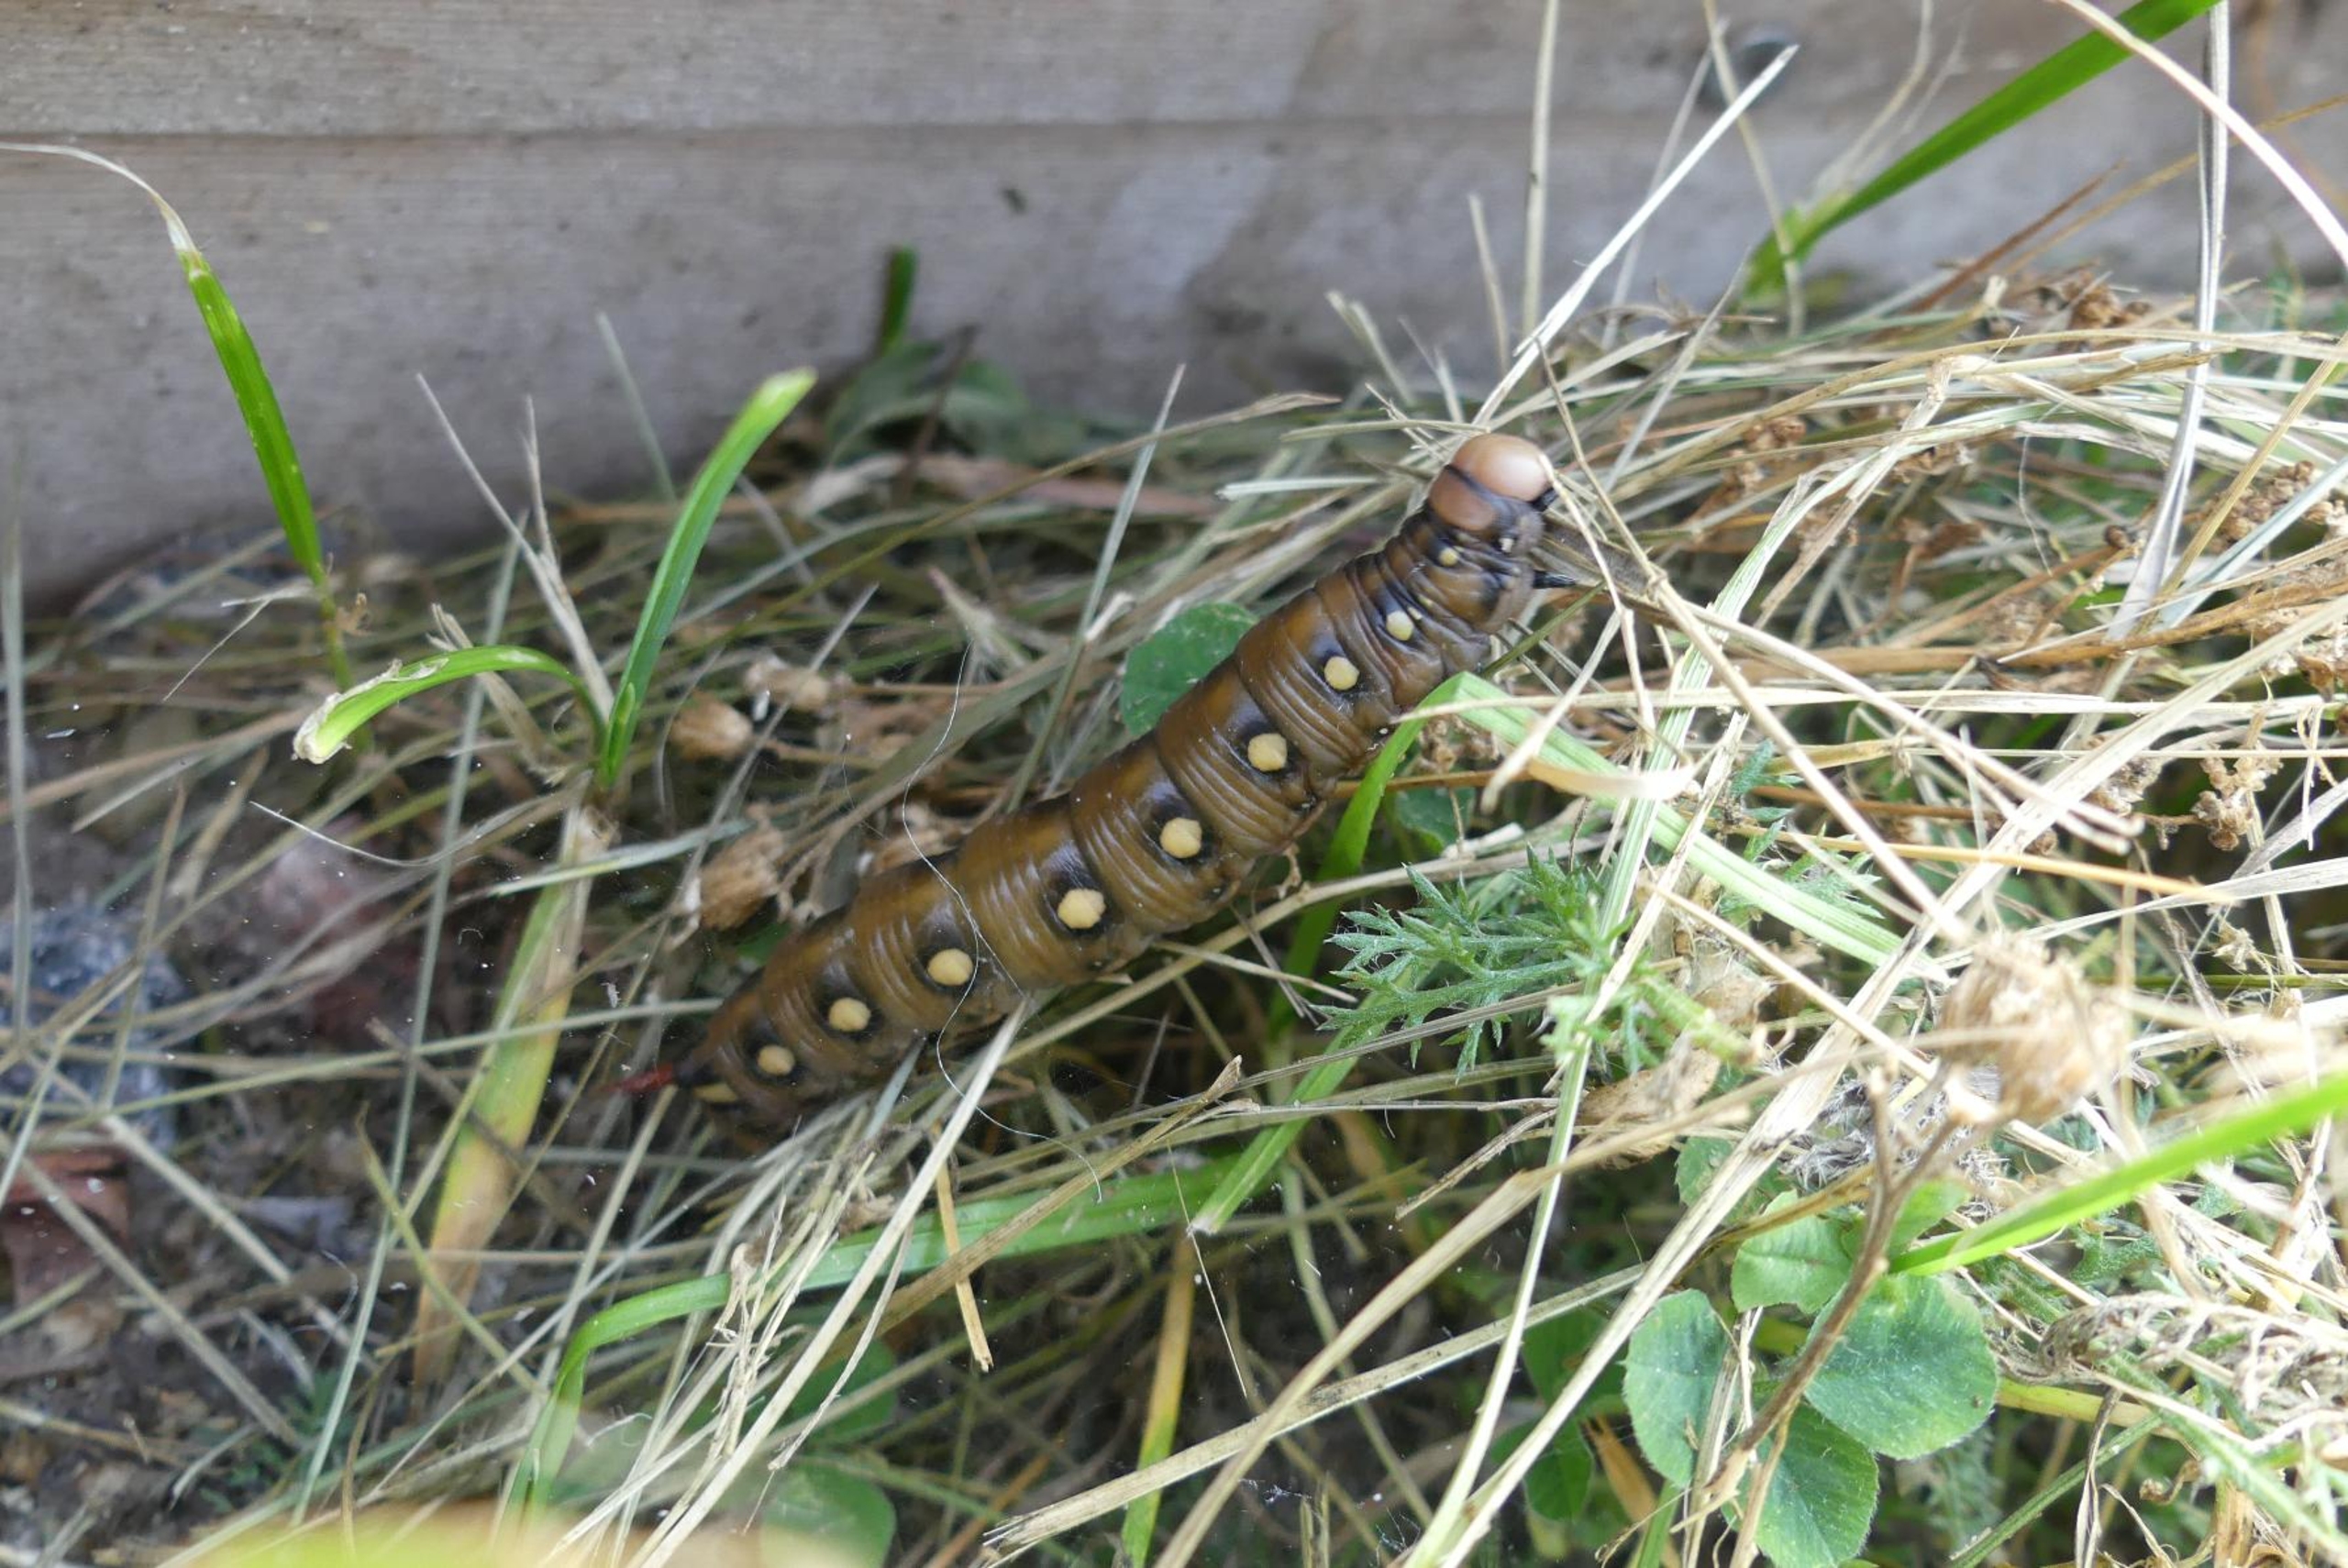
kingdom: Animalia
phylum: Arthropoda
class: Insecta
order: Lepidoptera
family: Sphingidae
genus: Hyles
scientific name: Hyles gallii
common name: Snerresværmer
